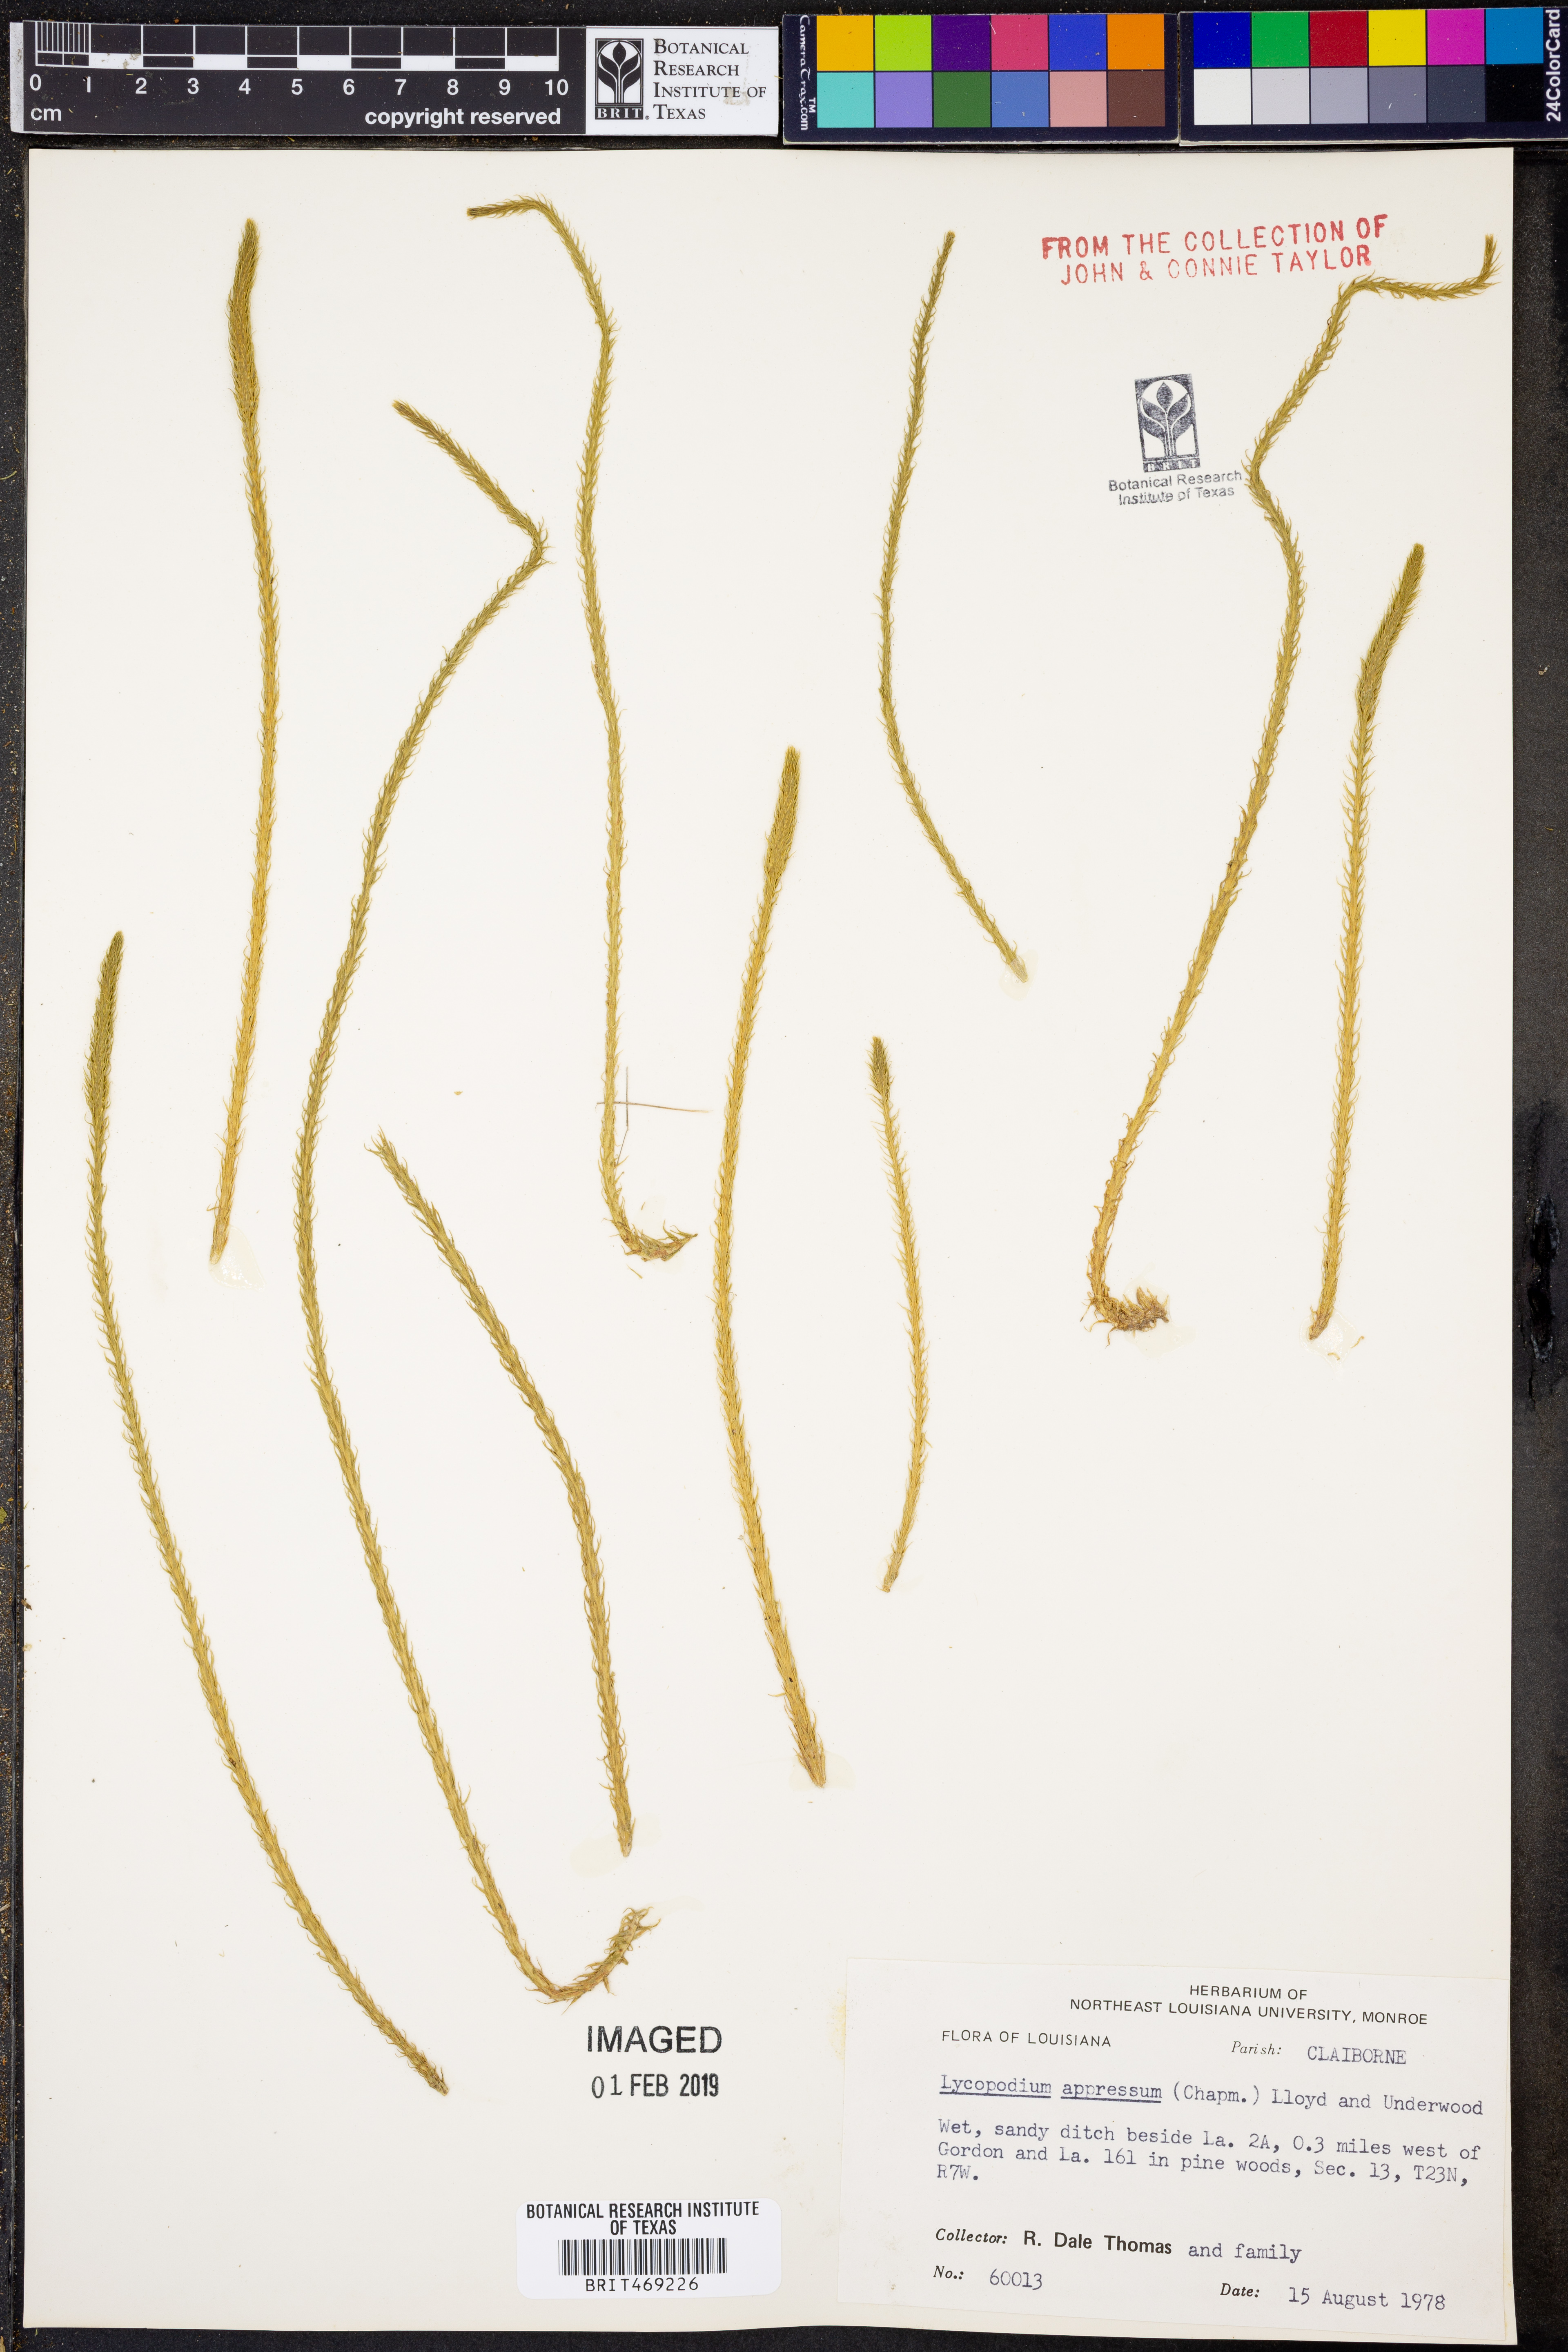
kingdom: Plantae
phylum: Tracheophyta
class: Lycopodiopsida
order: Lycopodiales
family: Lycopodiaceae
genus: Lycopodiella
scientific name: Lycopodiella appressa
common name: Appressed bog clubmoss
